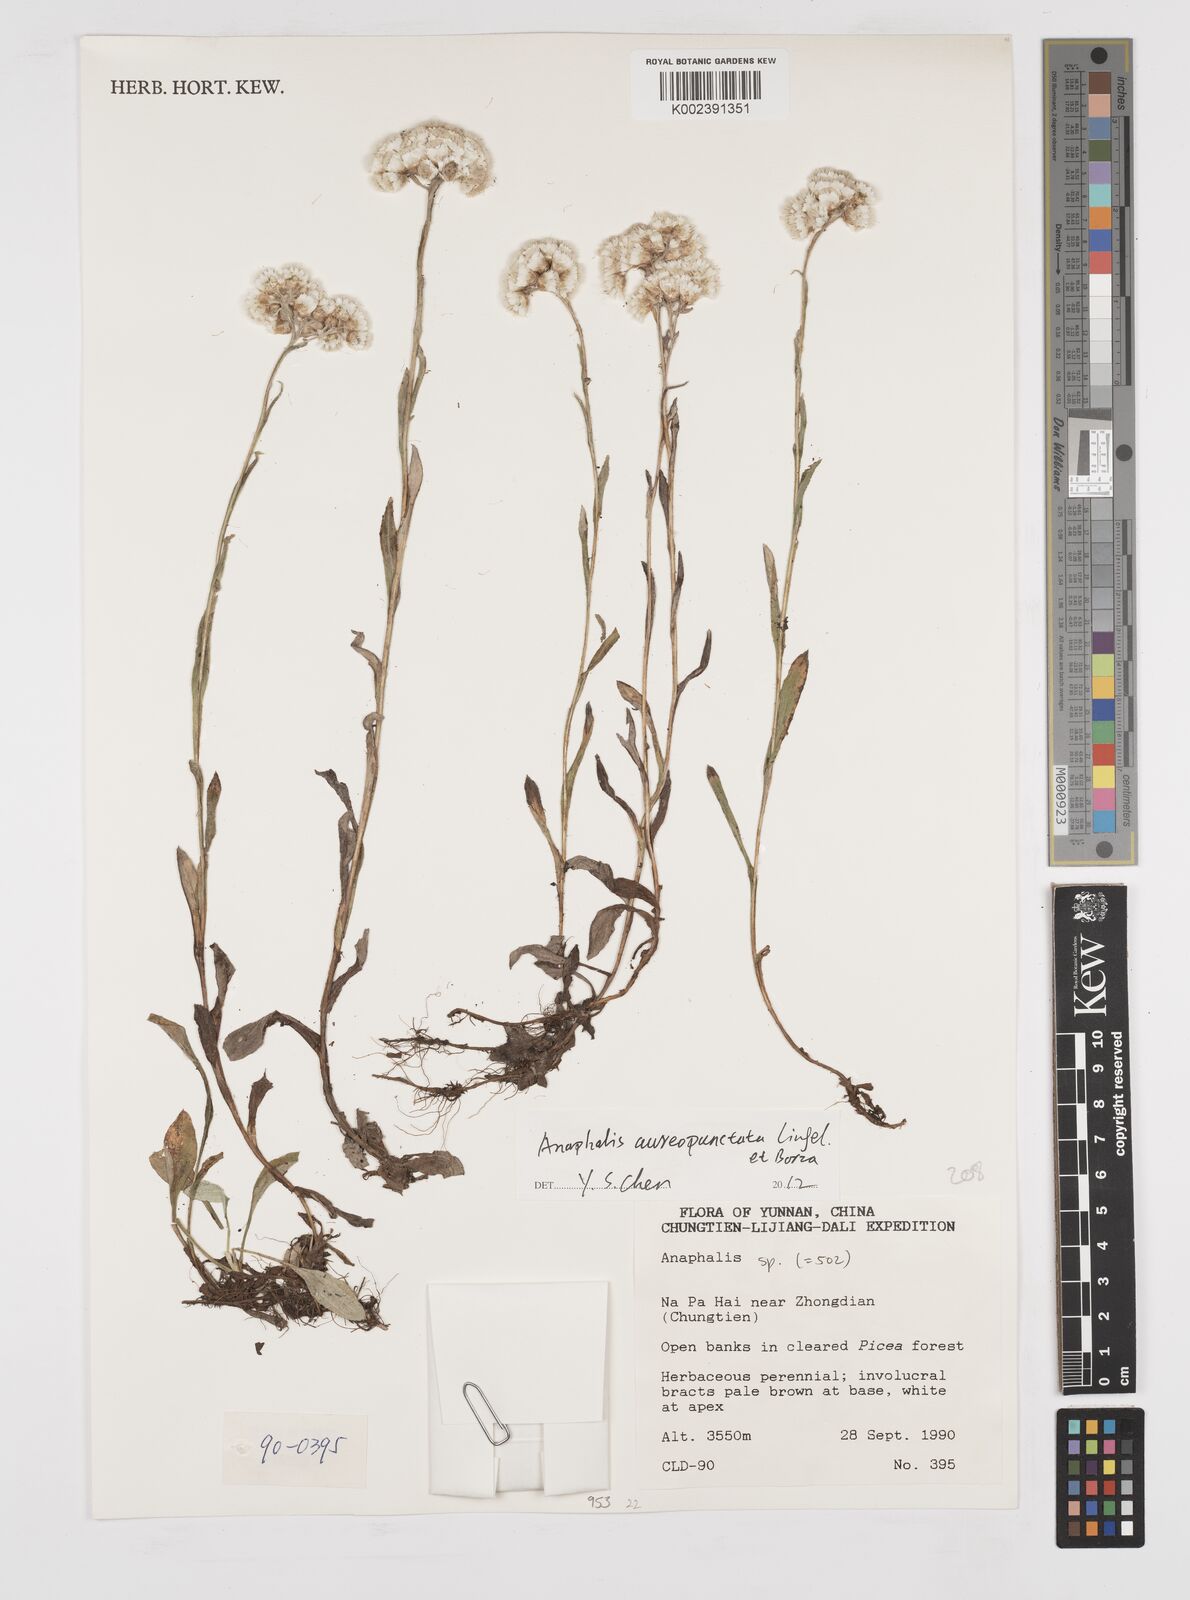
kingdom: Plantae
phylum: Tracheophyta
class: Magnoliopsida
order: Asterales
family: Asteraceae
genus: Anaphalis
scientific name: Anaphalis aureopunctata
